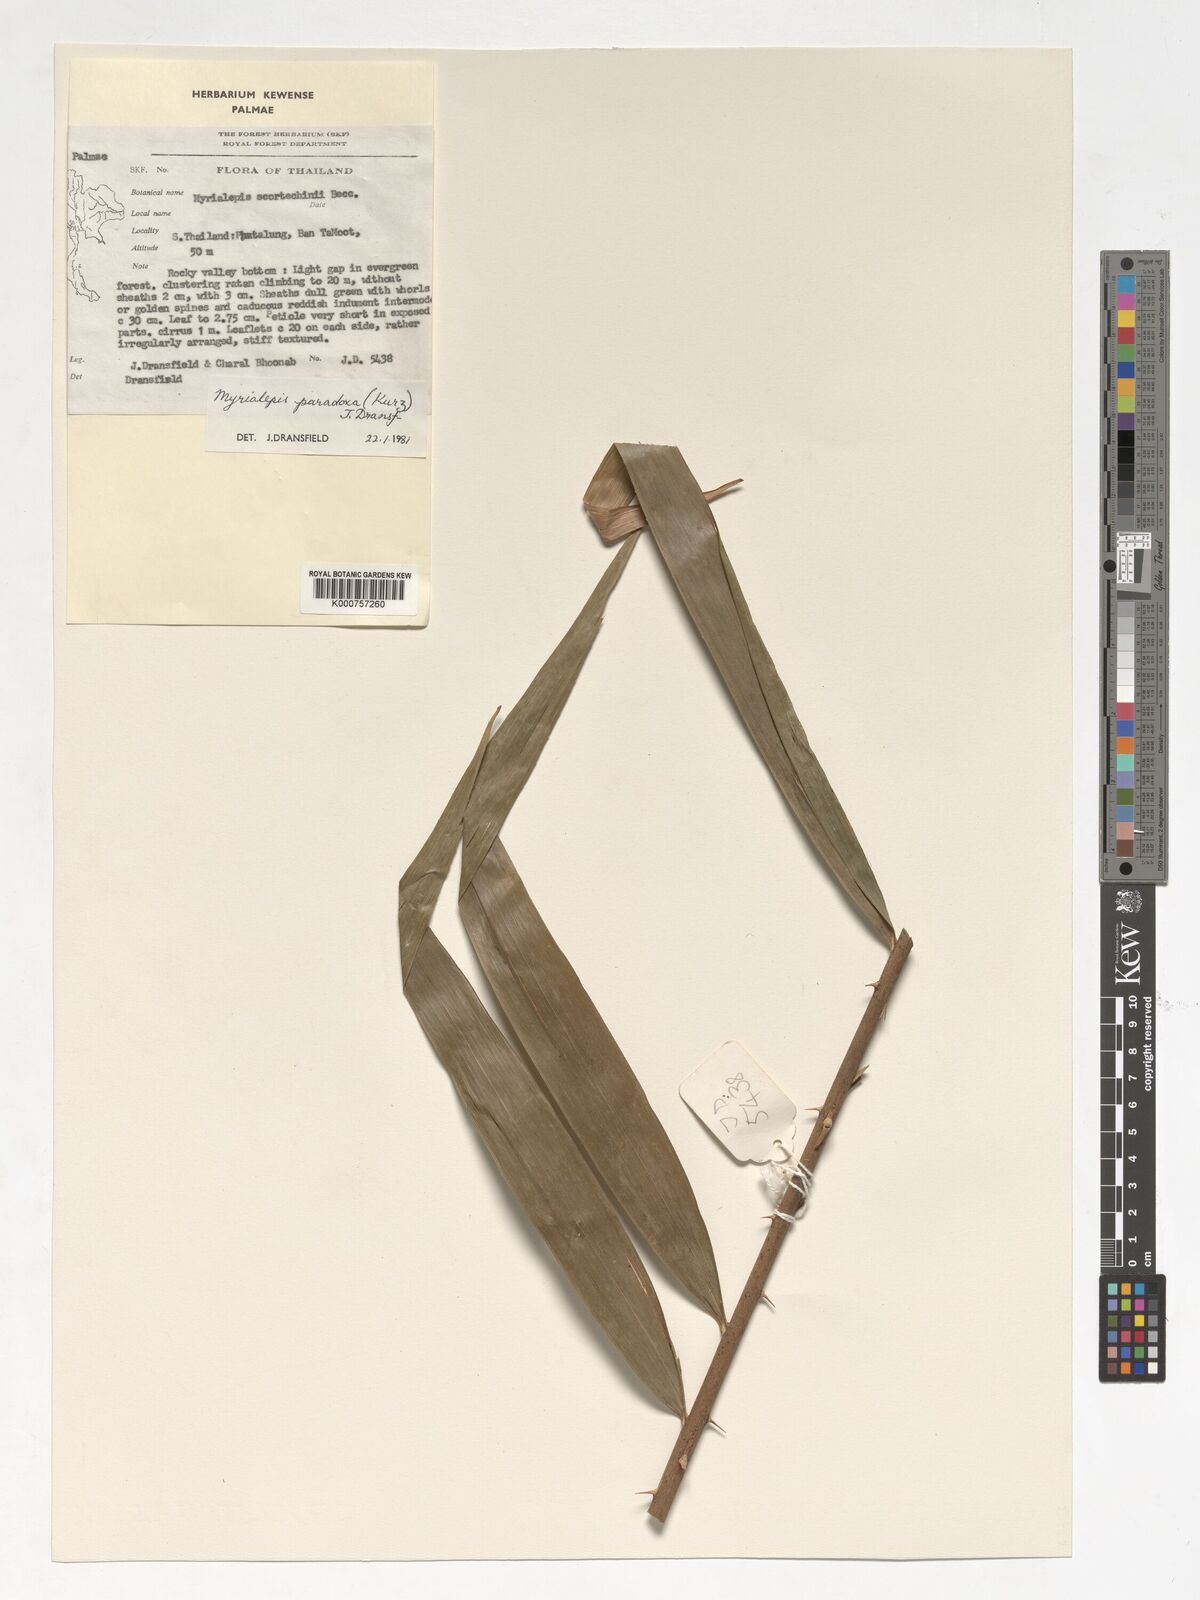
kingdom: Plantae
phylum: Tracheophyta
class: Liliopsida
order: Arecales
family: Arecaceae
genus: Myrialepis
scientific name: Myrialepis paradoxa
